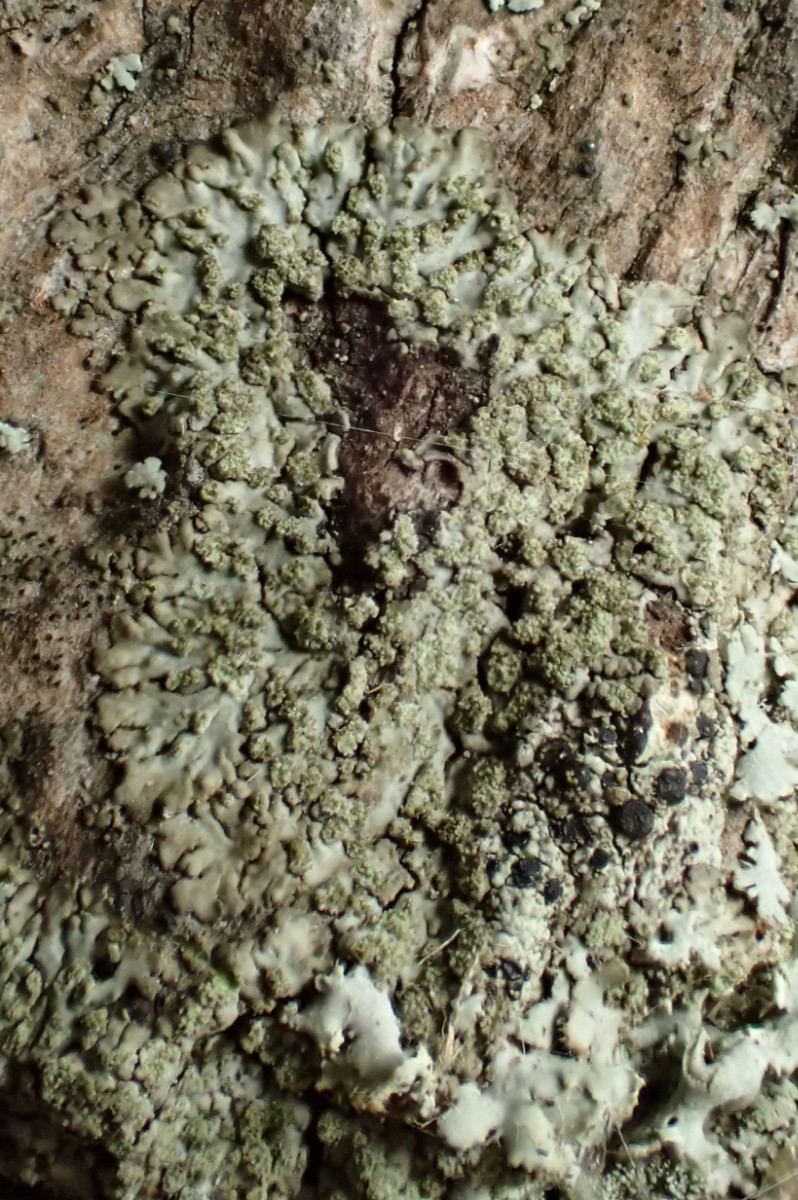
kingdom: Fungi
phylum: Ascomycota
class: Lecanoromycetes
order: Caliciales
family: Physciaceae
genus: Hyperphyscia
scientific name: Hyperphyscia adglutinata
